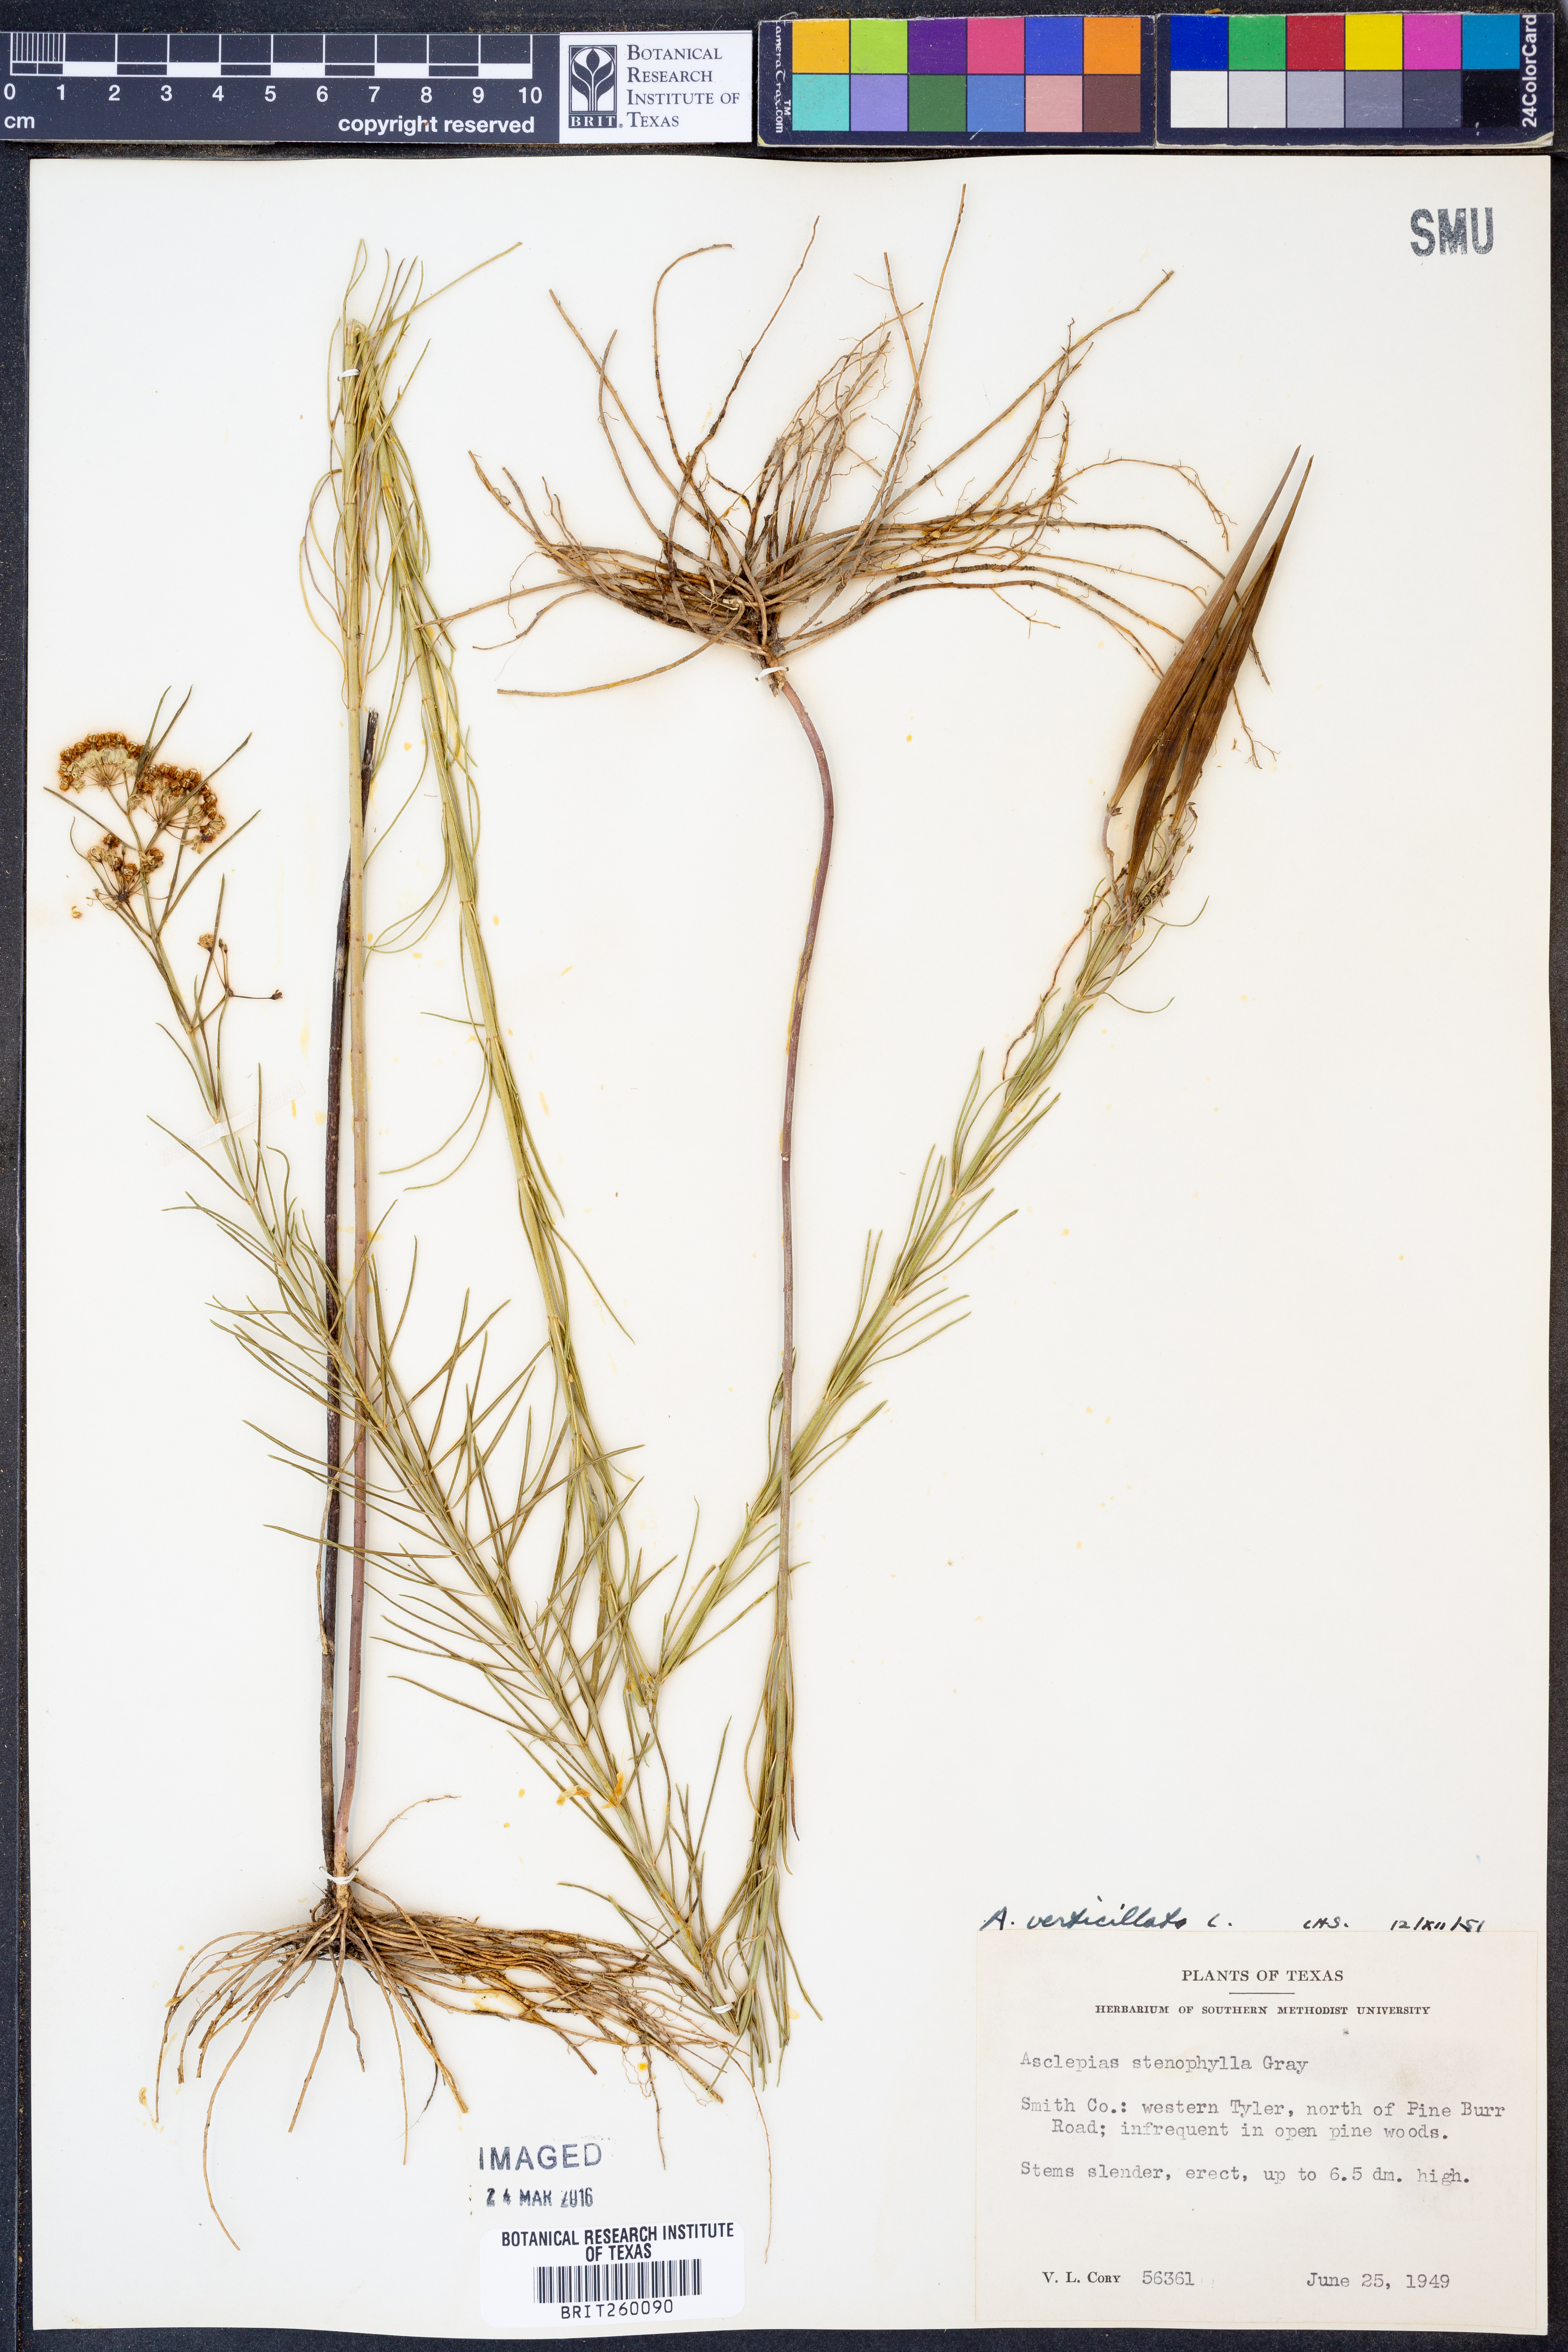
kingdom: Plantae
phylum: Tracheophyta
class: Magnoliopsida
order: Gentianales
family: Apocynaceae
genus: Asclepias
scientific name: Asclepias verticillata
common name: Eastern whorled milkweed
